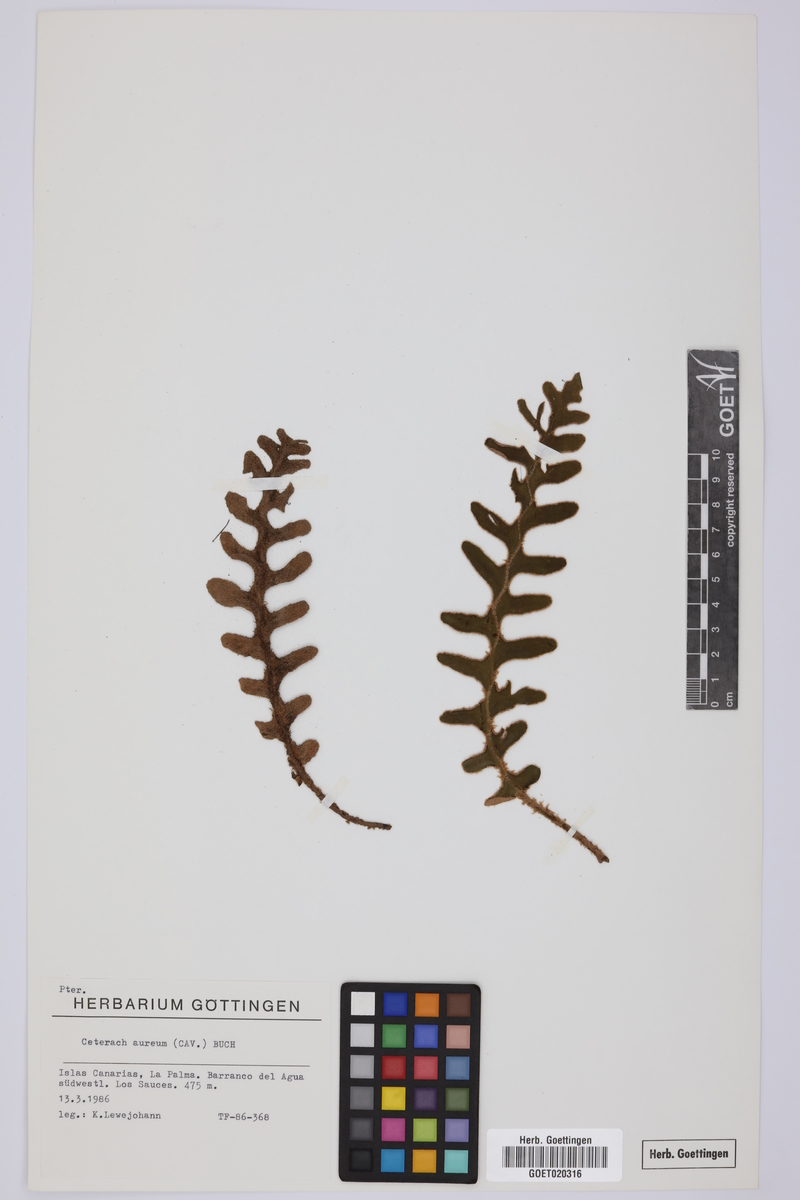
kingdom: Plantae
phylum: Tracheophyta
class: Polypodiopsida
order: Polypodiales
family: Aspleniaceae
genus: Asplenium
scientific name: Asplenium aureum
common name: Golden rustyback fern
